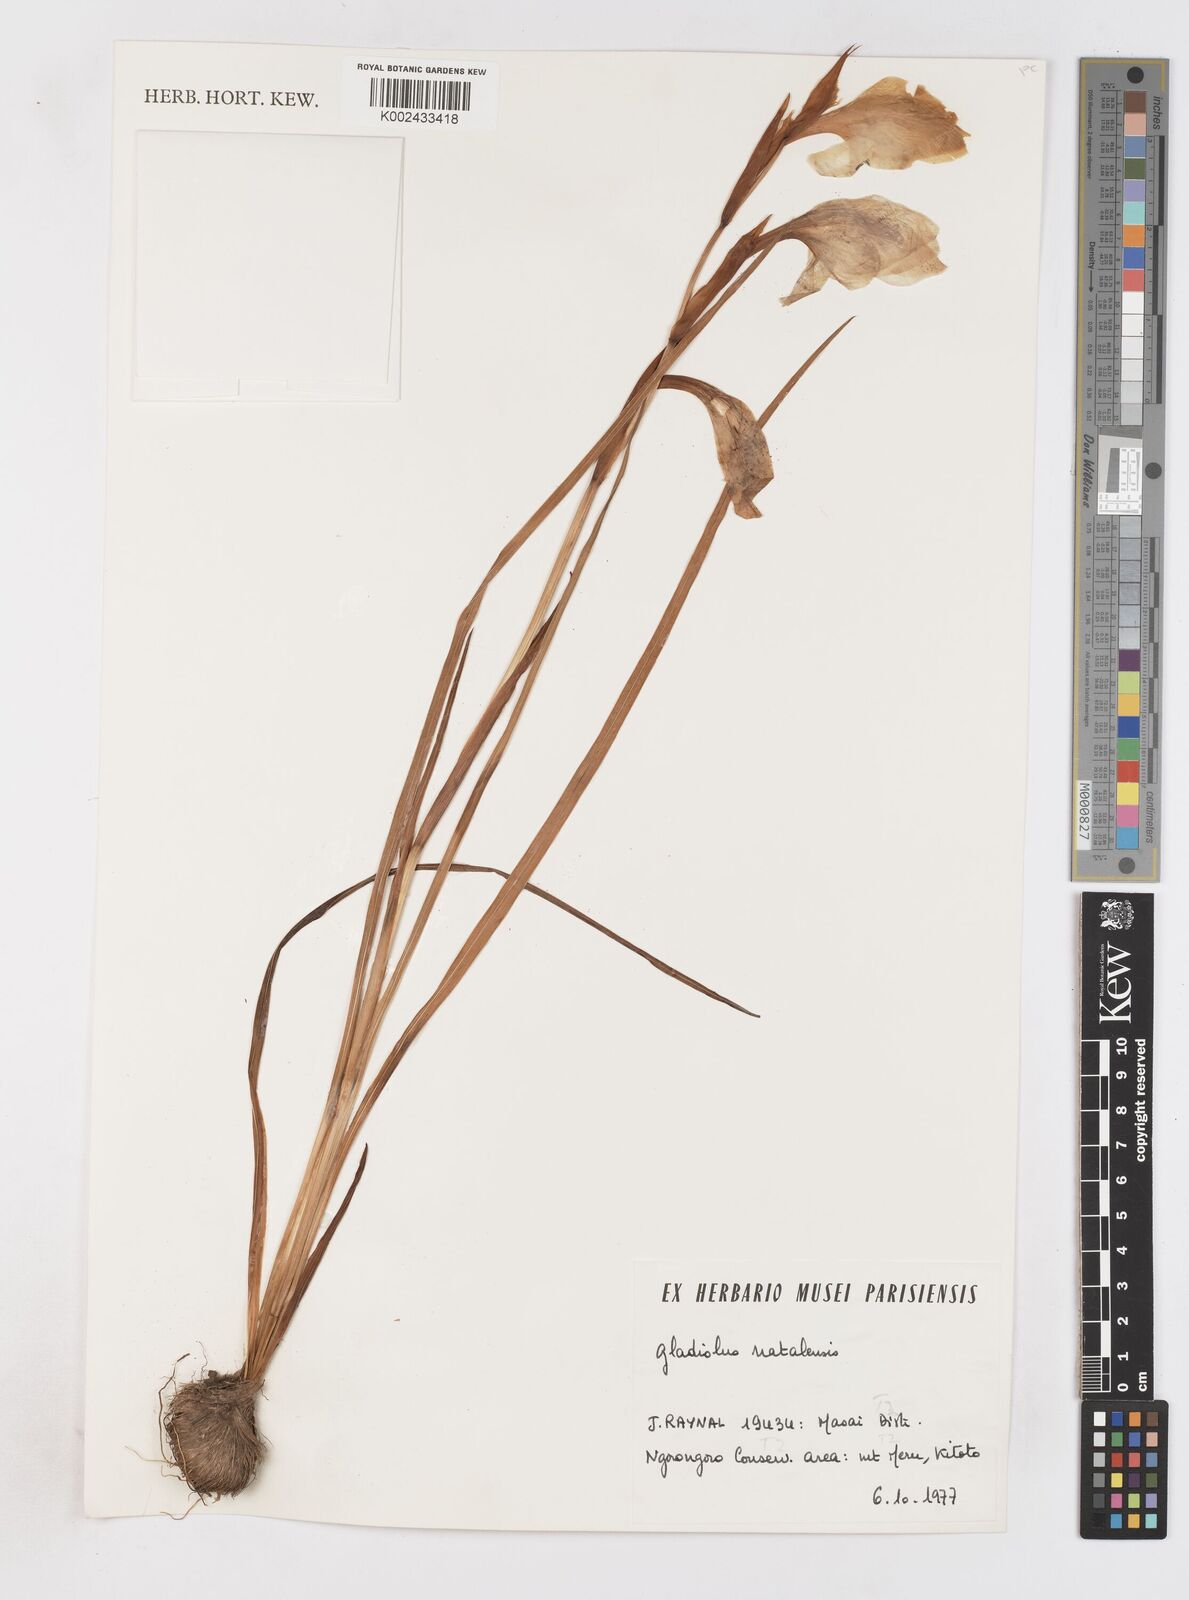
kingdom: Plantae
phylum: Tracheophyta
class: Liliopsida
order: Asparagales
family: Iridaceae
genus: Gladiolus
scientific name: Gladiolus dalenii
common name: Cornflag
